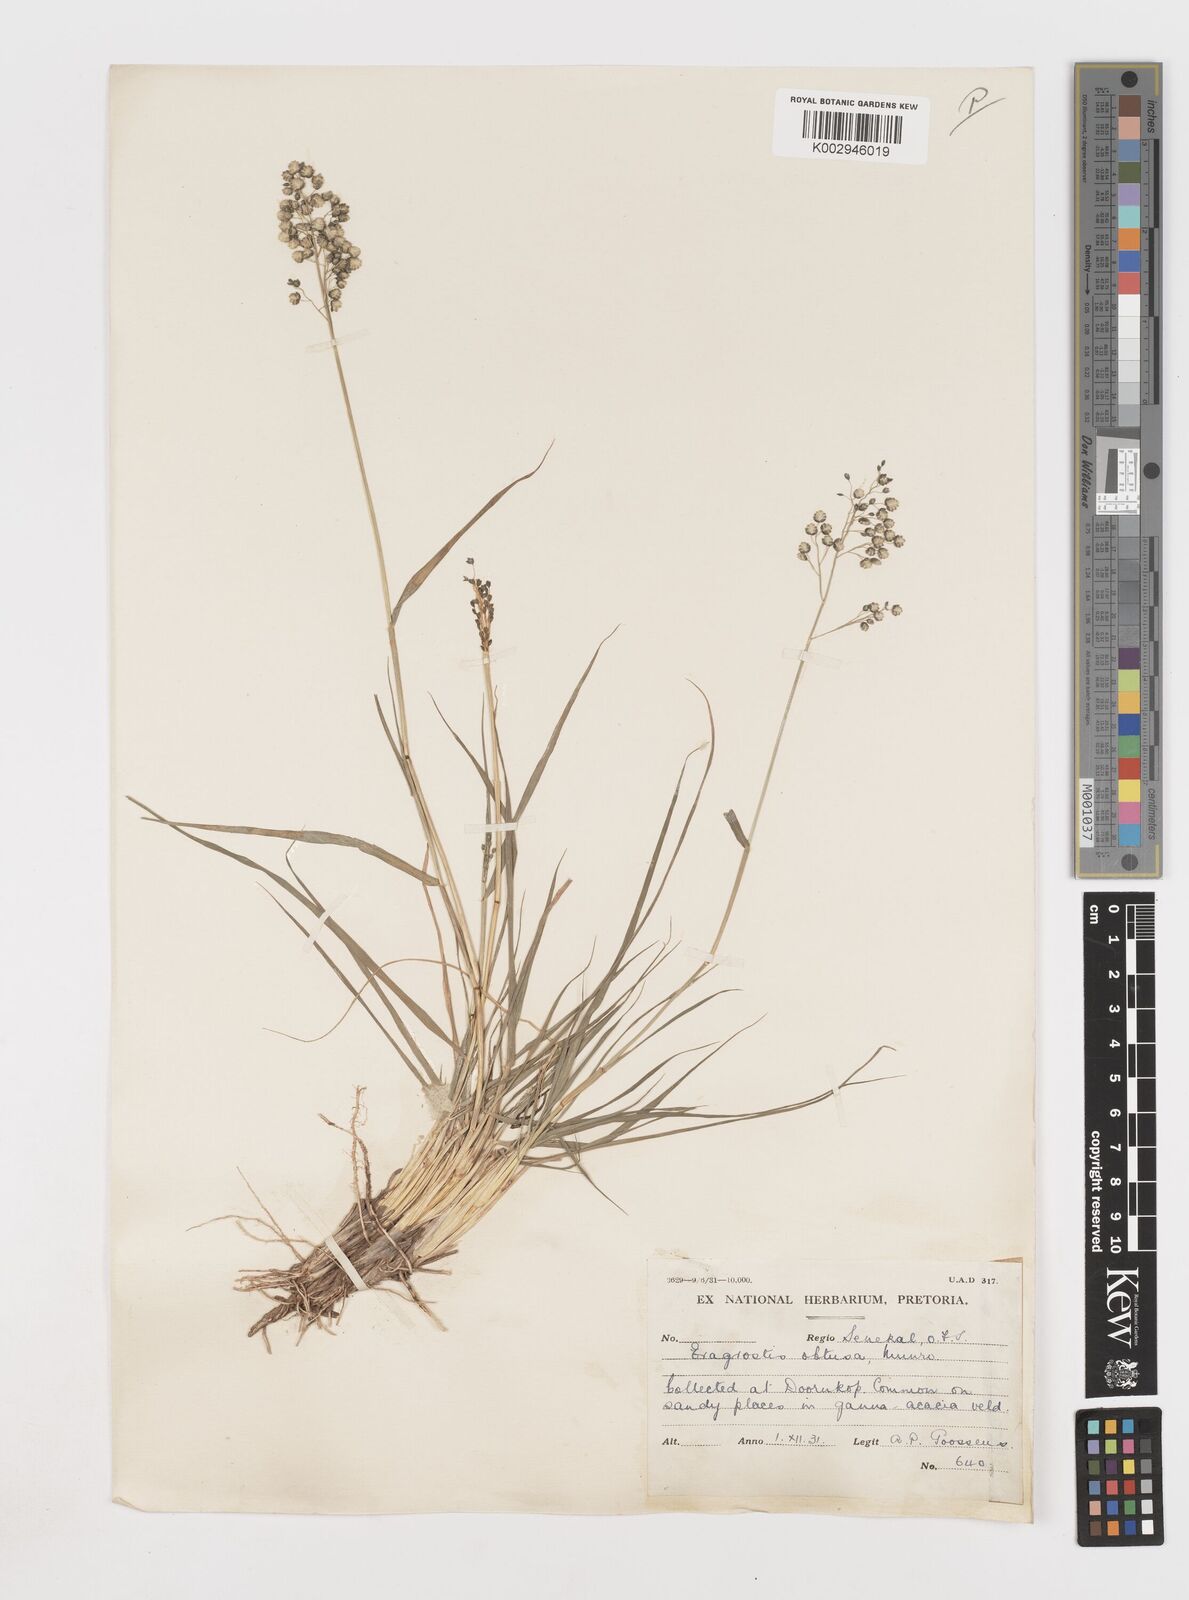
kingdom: Plantae
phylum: Tracheophyta
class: Liliopsida
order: Poales
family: Poaceae
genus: Eragrostis
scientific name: Eragrostis obtusa
